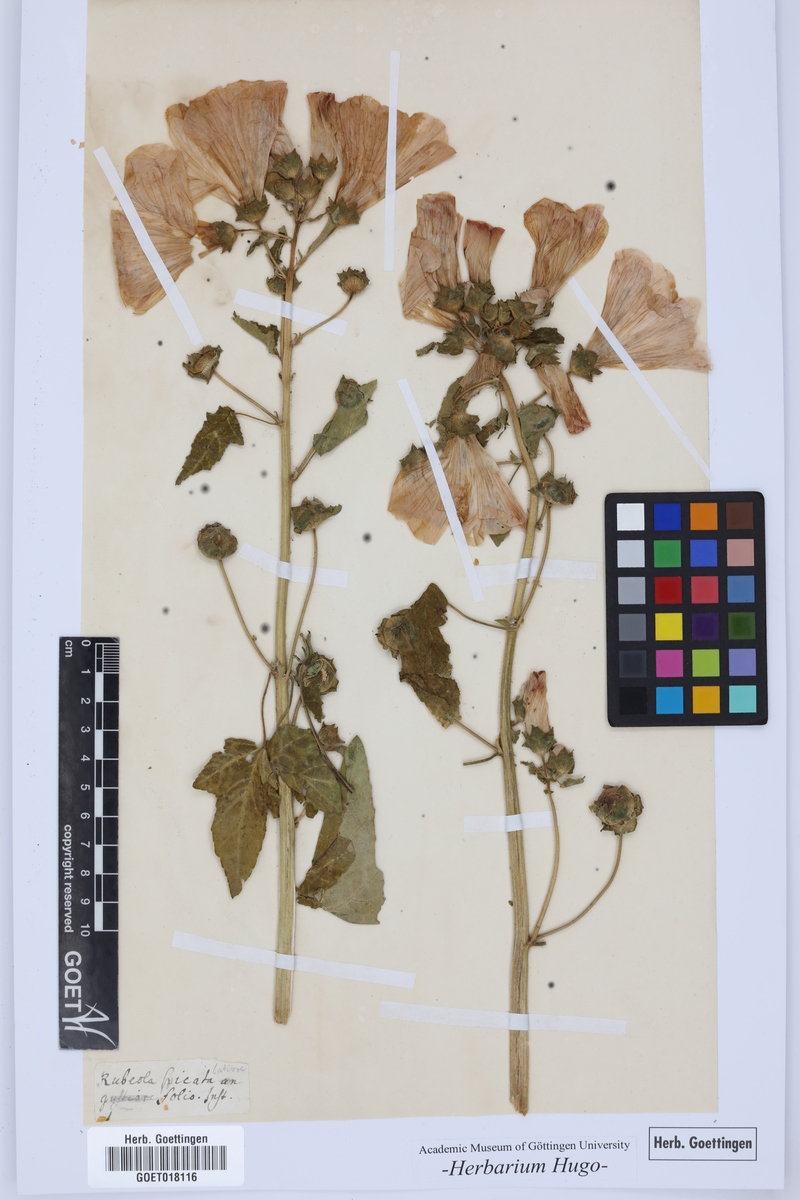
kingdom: Plantae
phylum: Tracheophyta
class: Magnoliopsida
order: Gentianales
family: Rubiaceae
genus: Crucianella
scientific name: Crucianella latifolia
